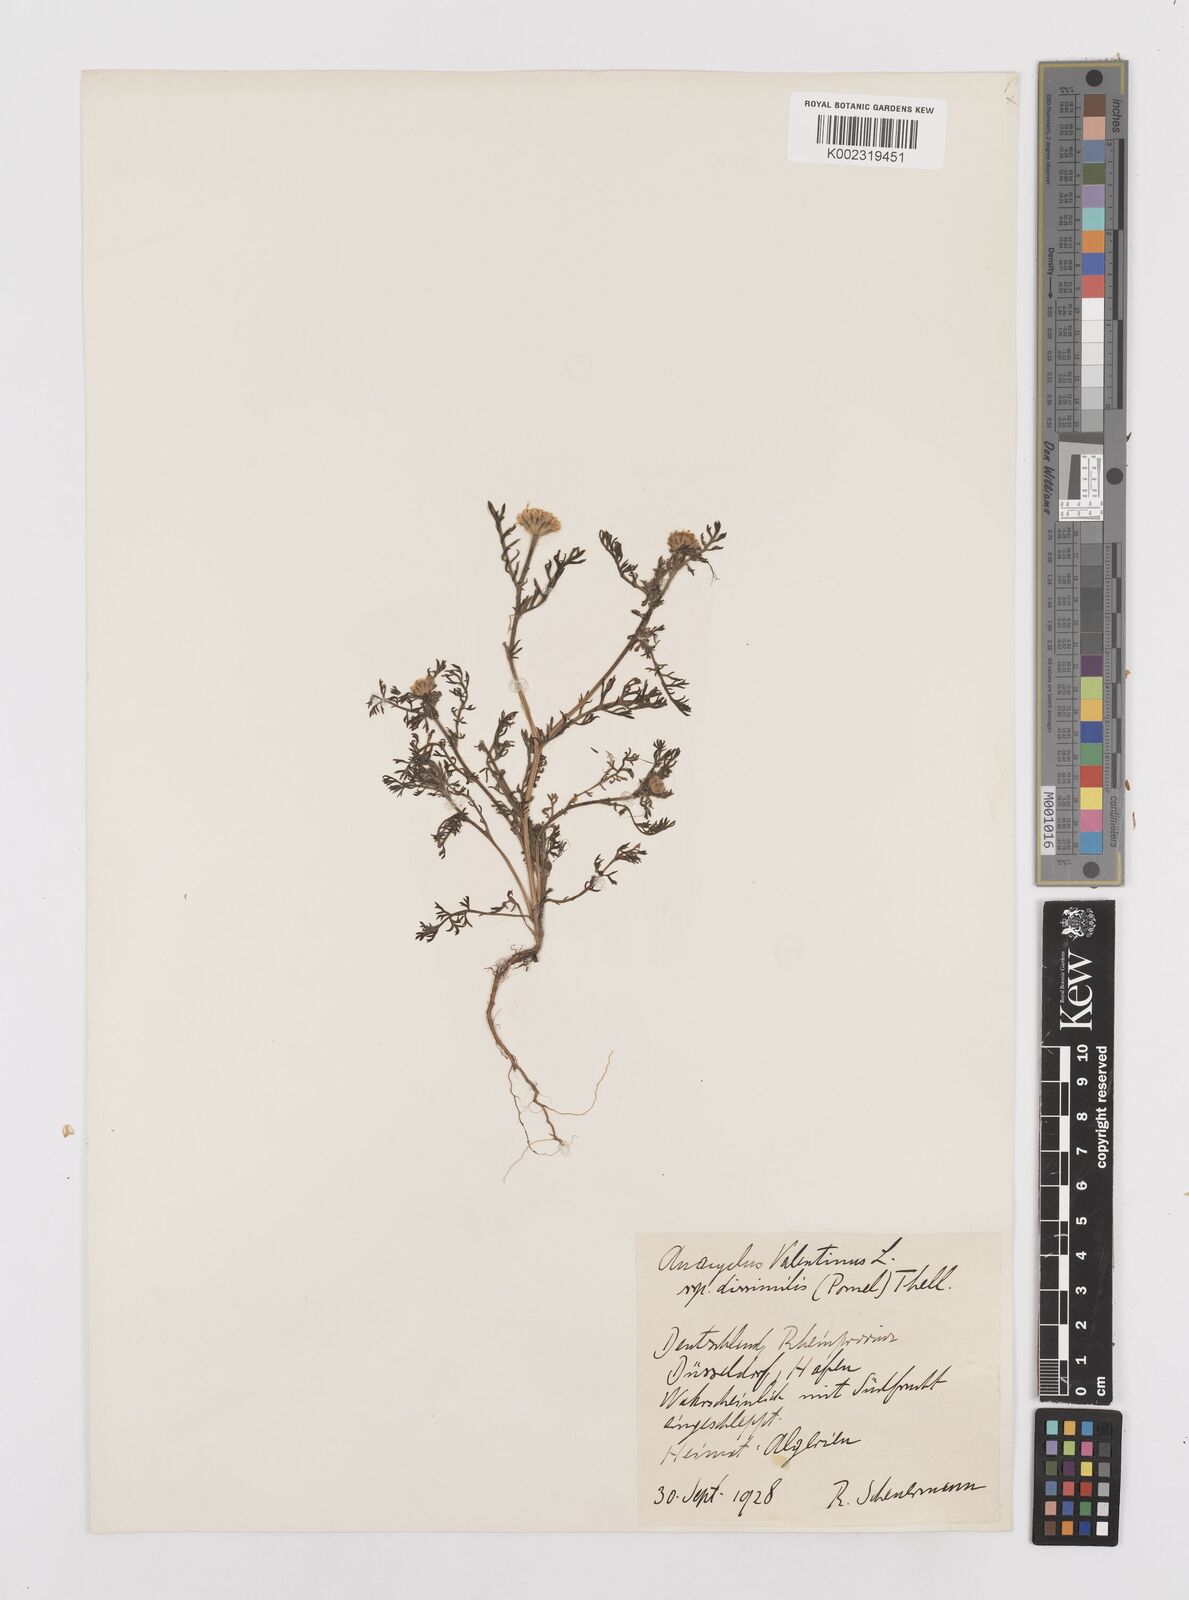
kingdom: Plantae
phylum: Tracheophyta
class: Magnoliopsida
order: Asterales
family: Asteraceae
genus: Anacyclus
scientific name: Anacyclus valentinus
